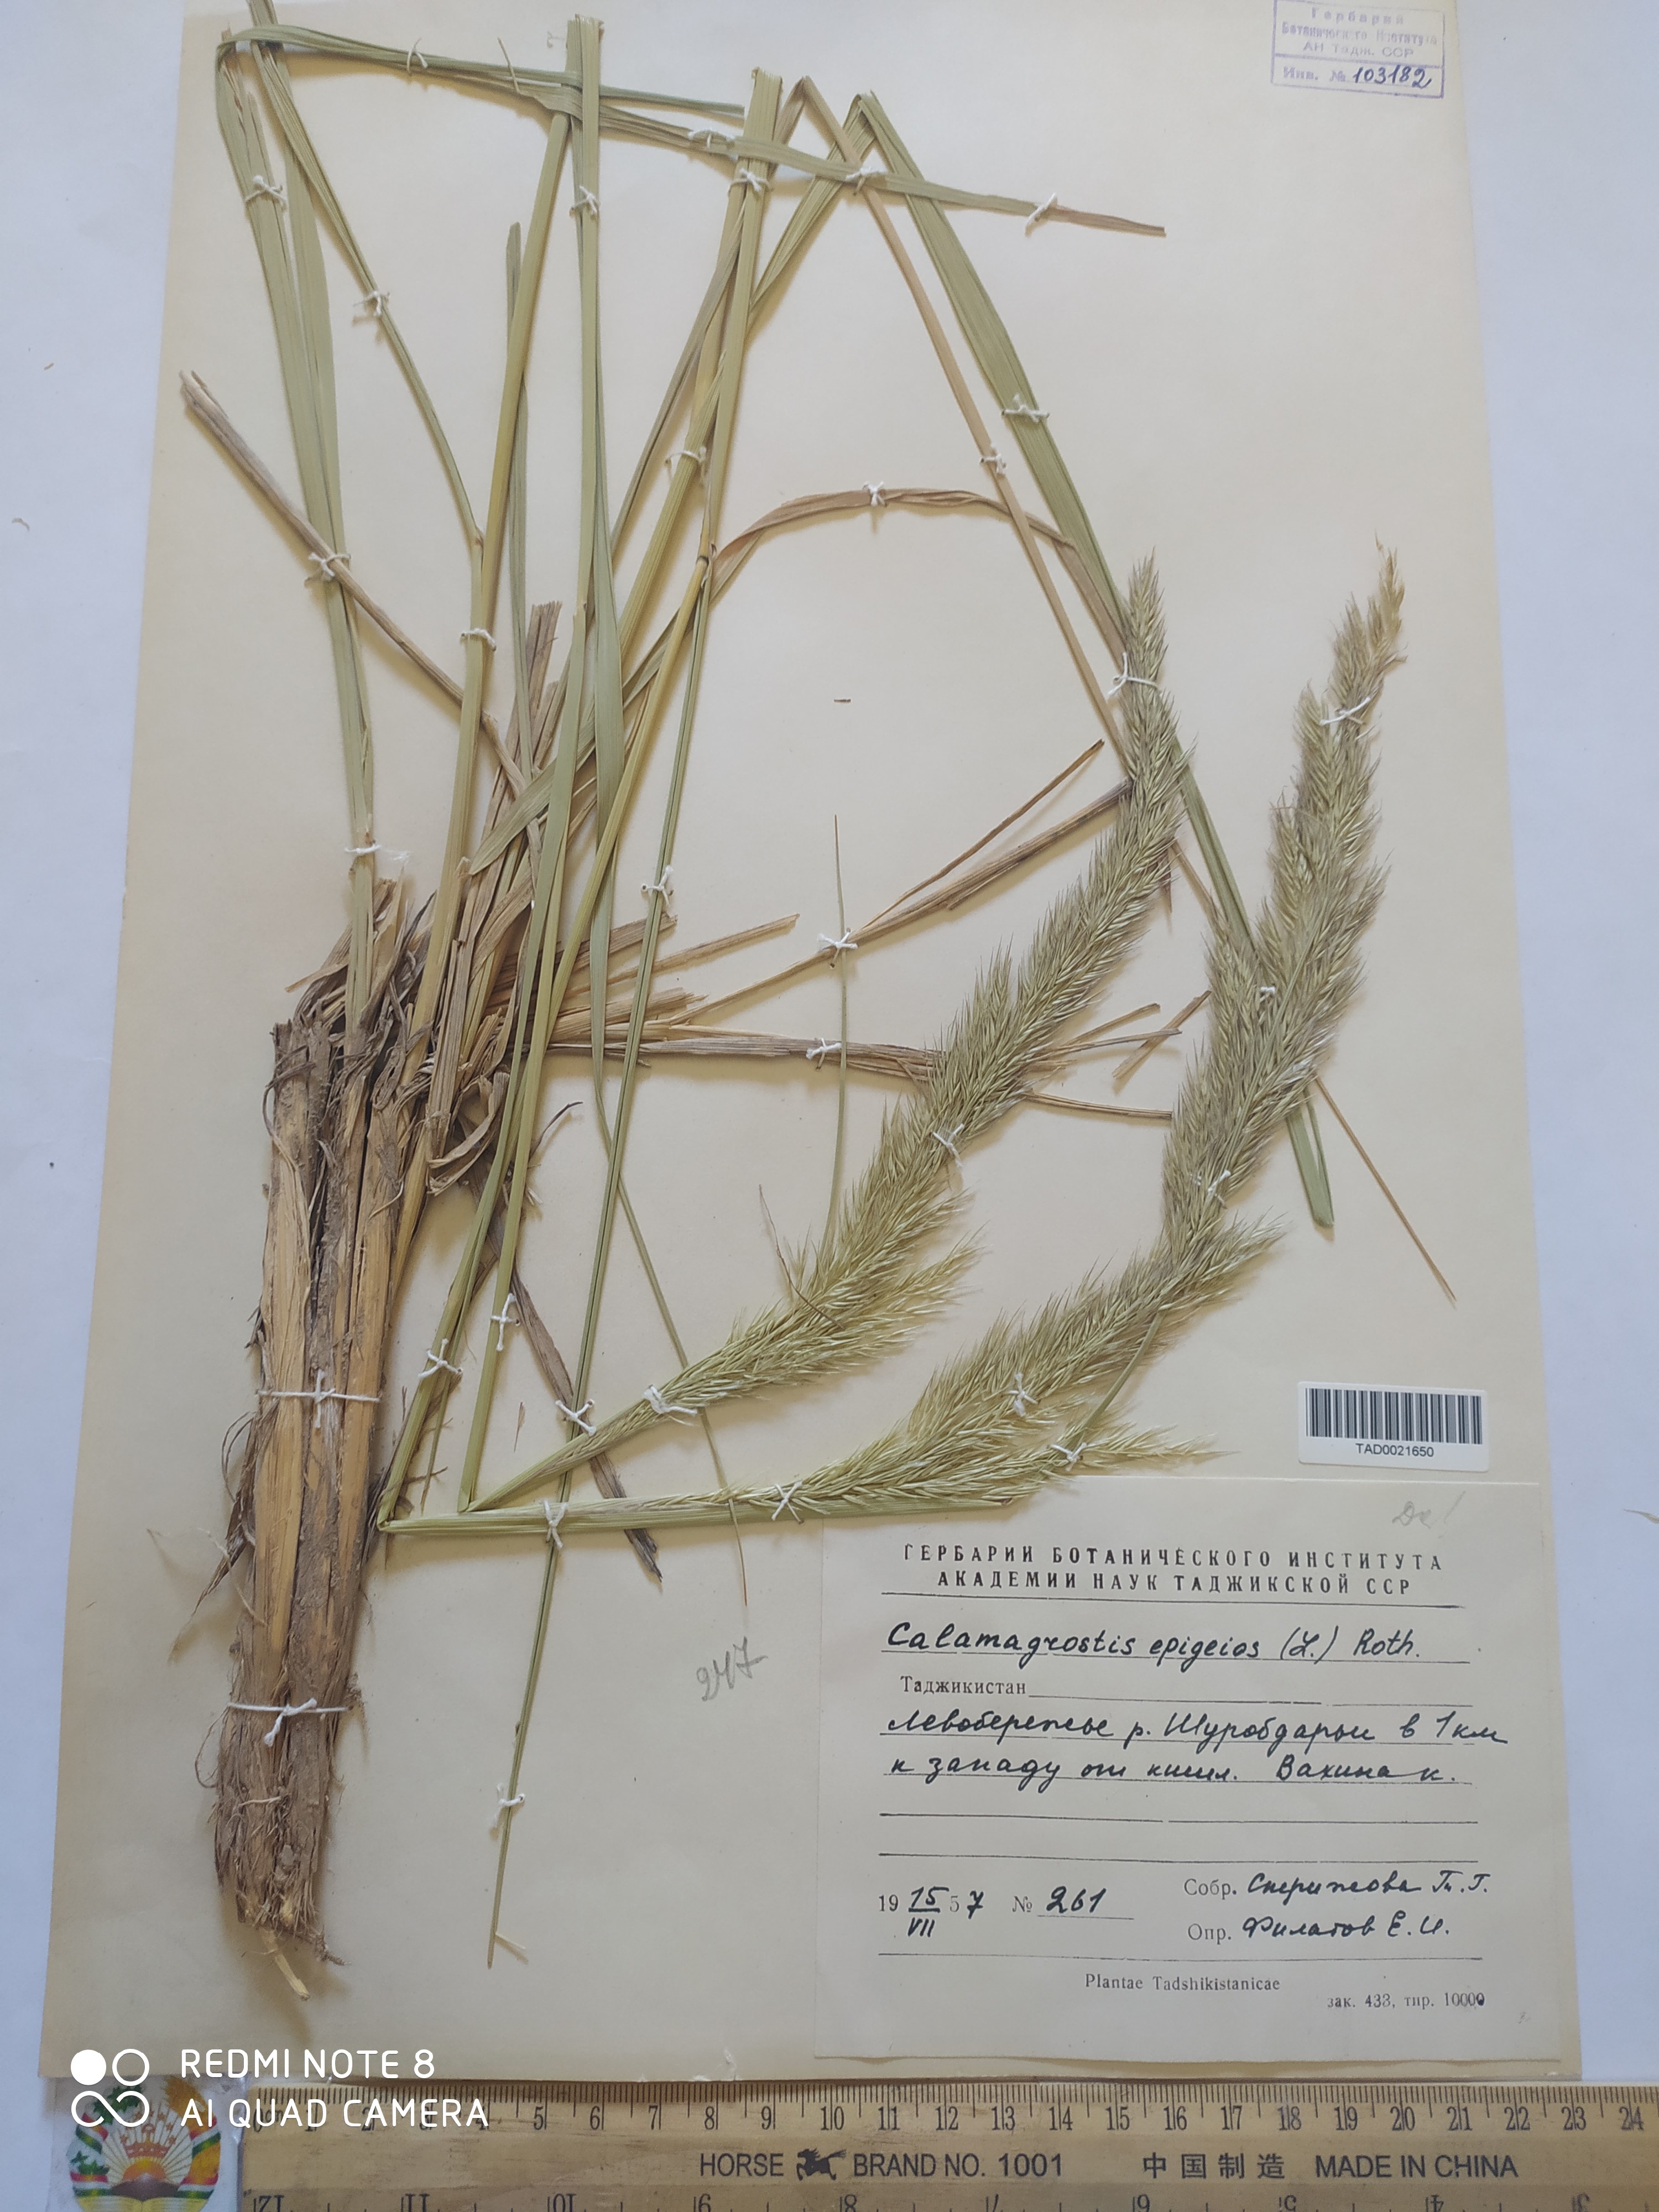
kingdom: Plantae
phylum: Tracheophyta
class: Liliopsida
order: Poales
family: Poaceae
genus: Calamagrostis
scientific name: Calamagrostis epigejos
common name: Wood small-reed
